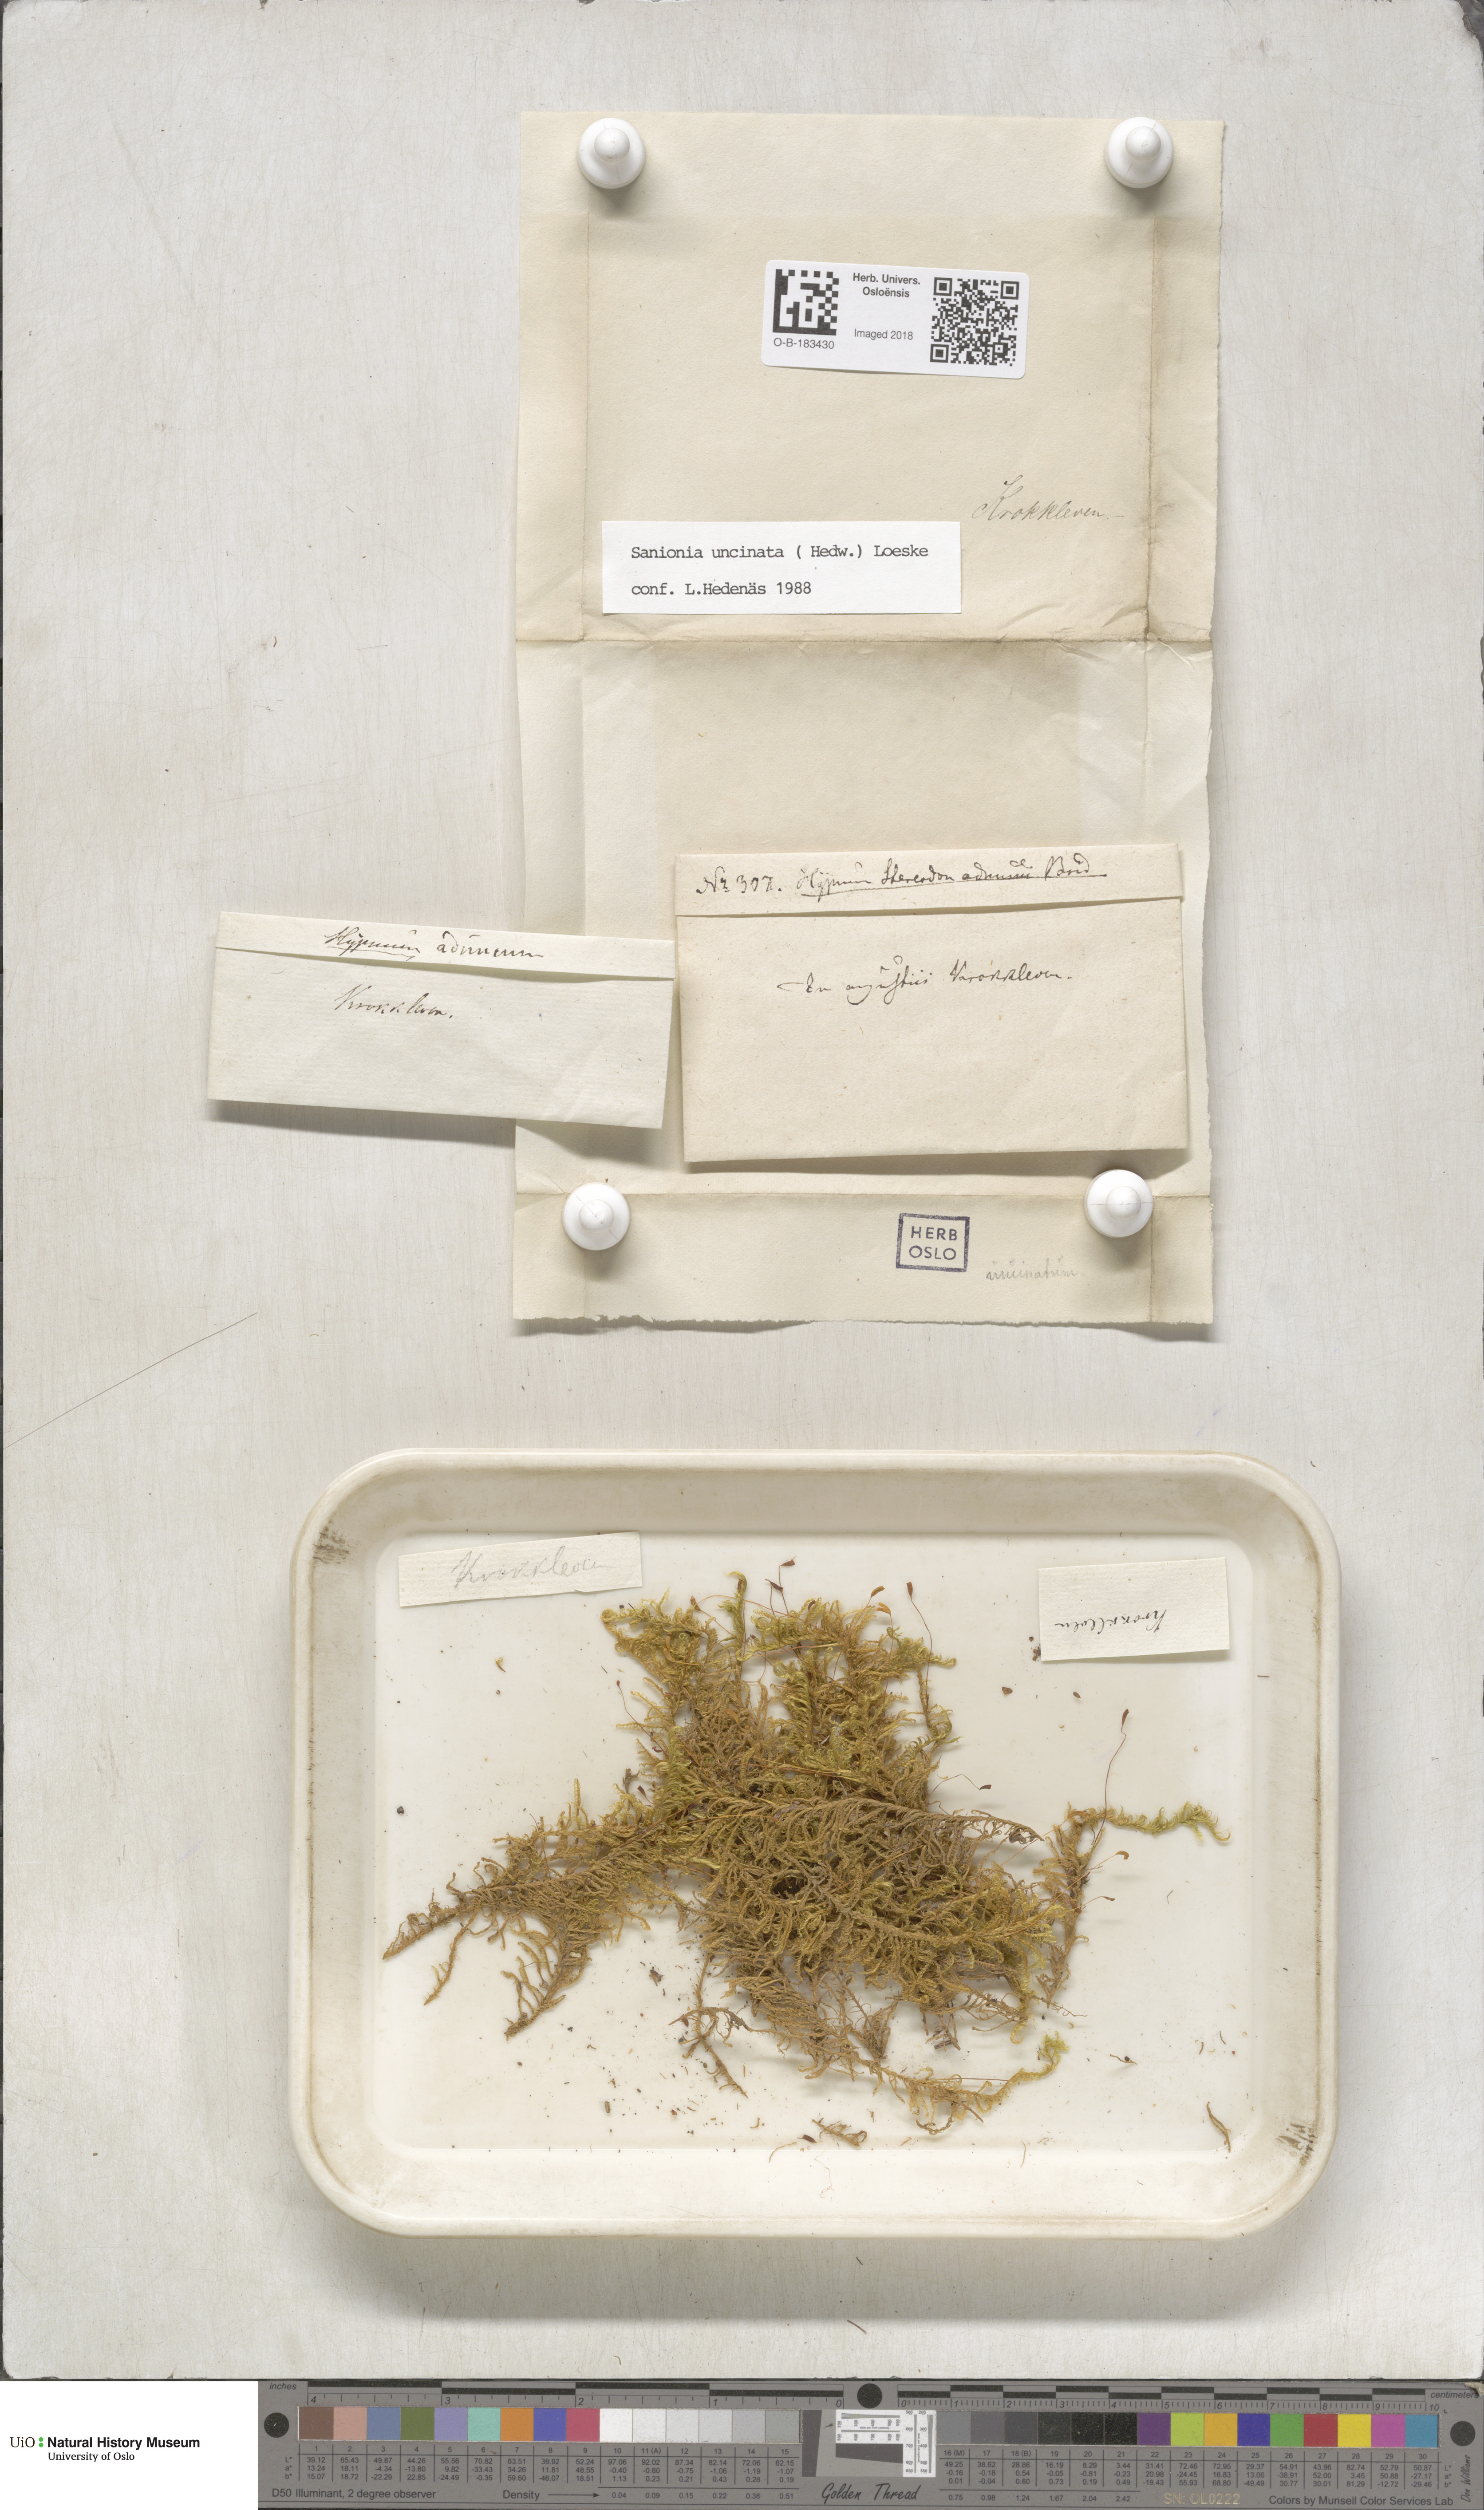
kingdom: Plantae
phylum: Bryophyta
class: Bryopsida
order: Hypnales
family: Scorpidiaceae
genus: Sanionia
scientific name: Sanionia uncinata
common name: Sickle moss
